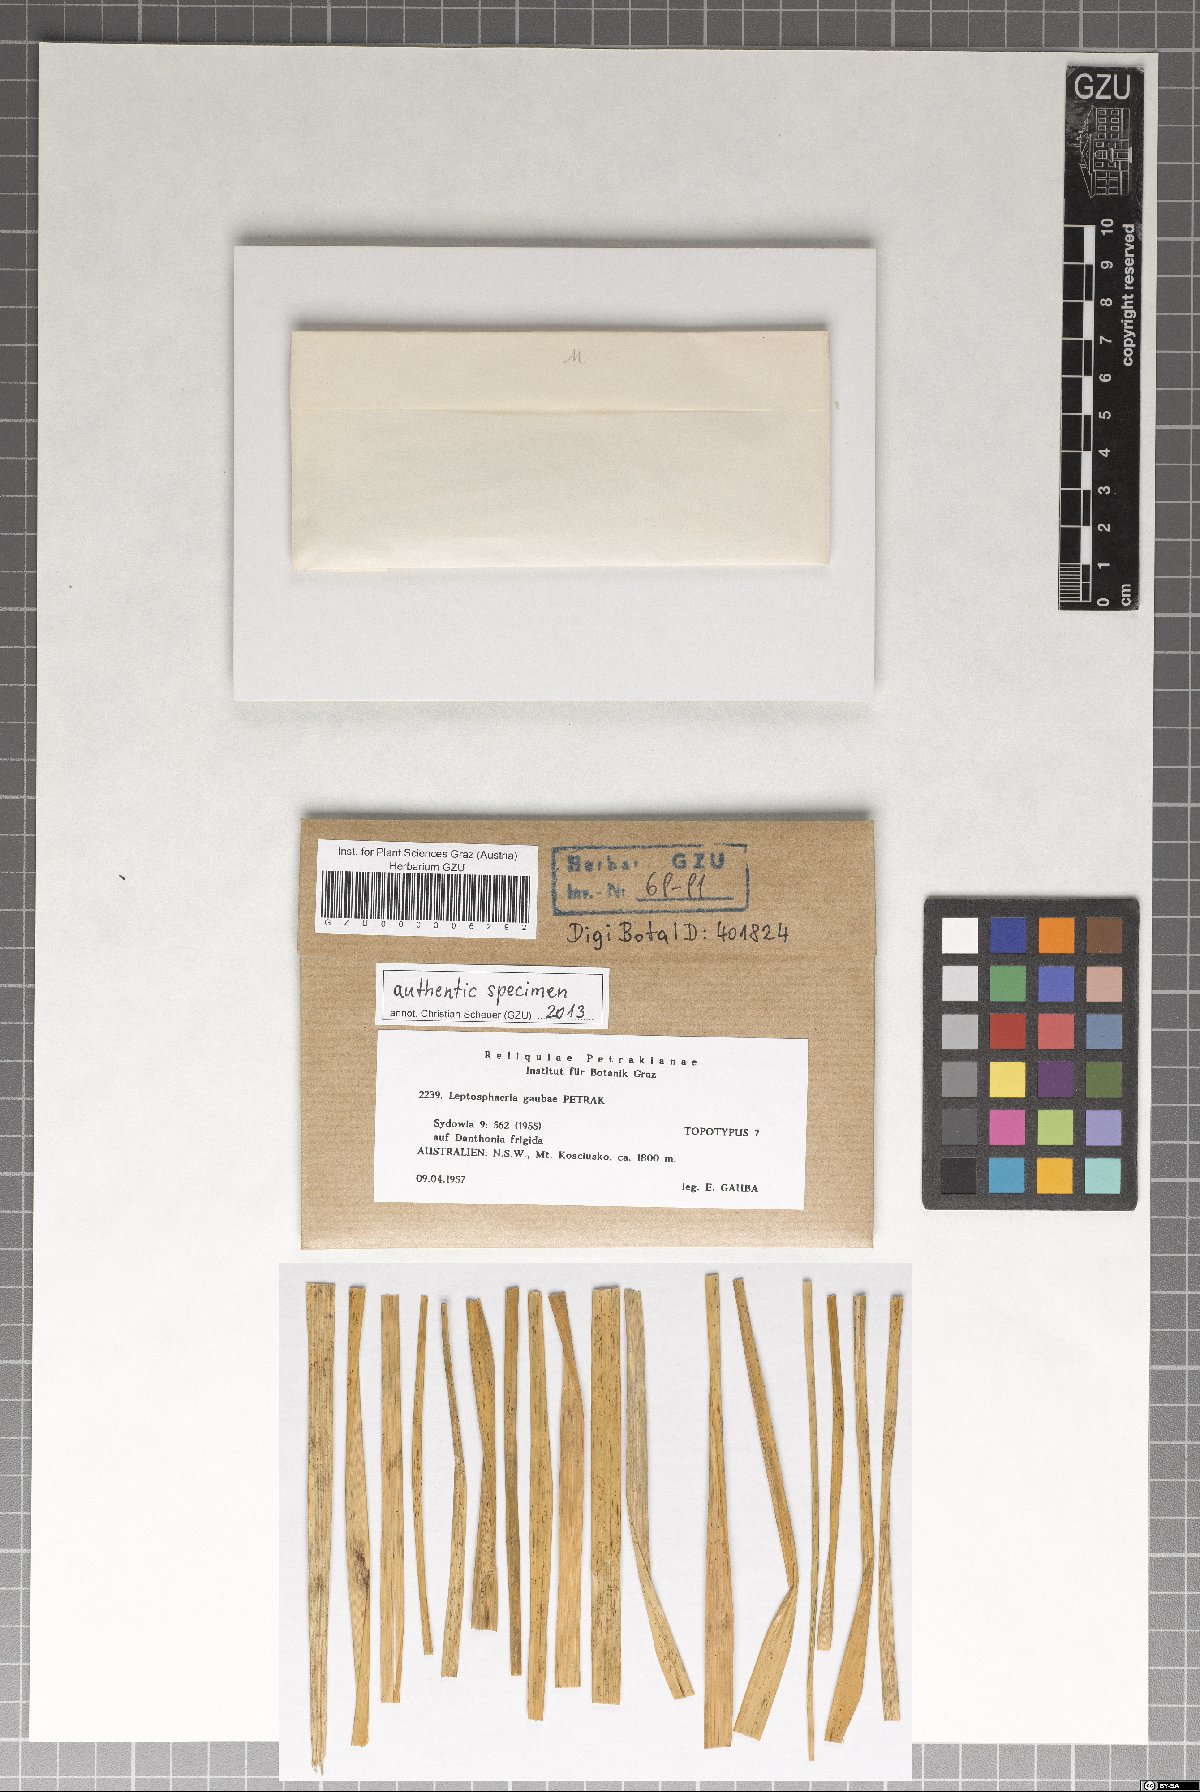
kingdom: Fungi
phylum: Ascomycota
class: Dothideomycetes
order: Pleosporales
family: Leptosphaeriaceae
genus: Leptosphaeria
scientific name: Leptosphaeria gaubae
